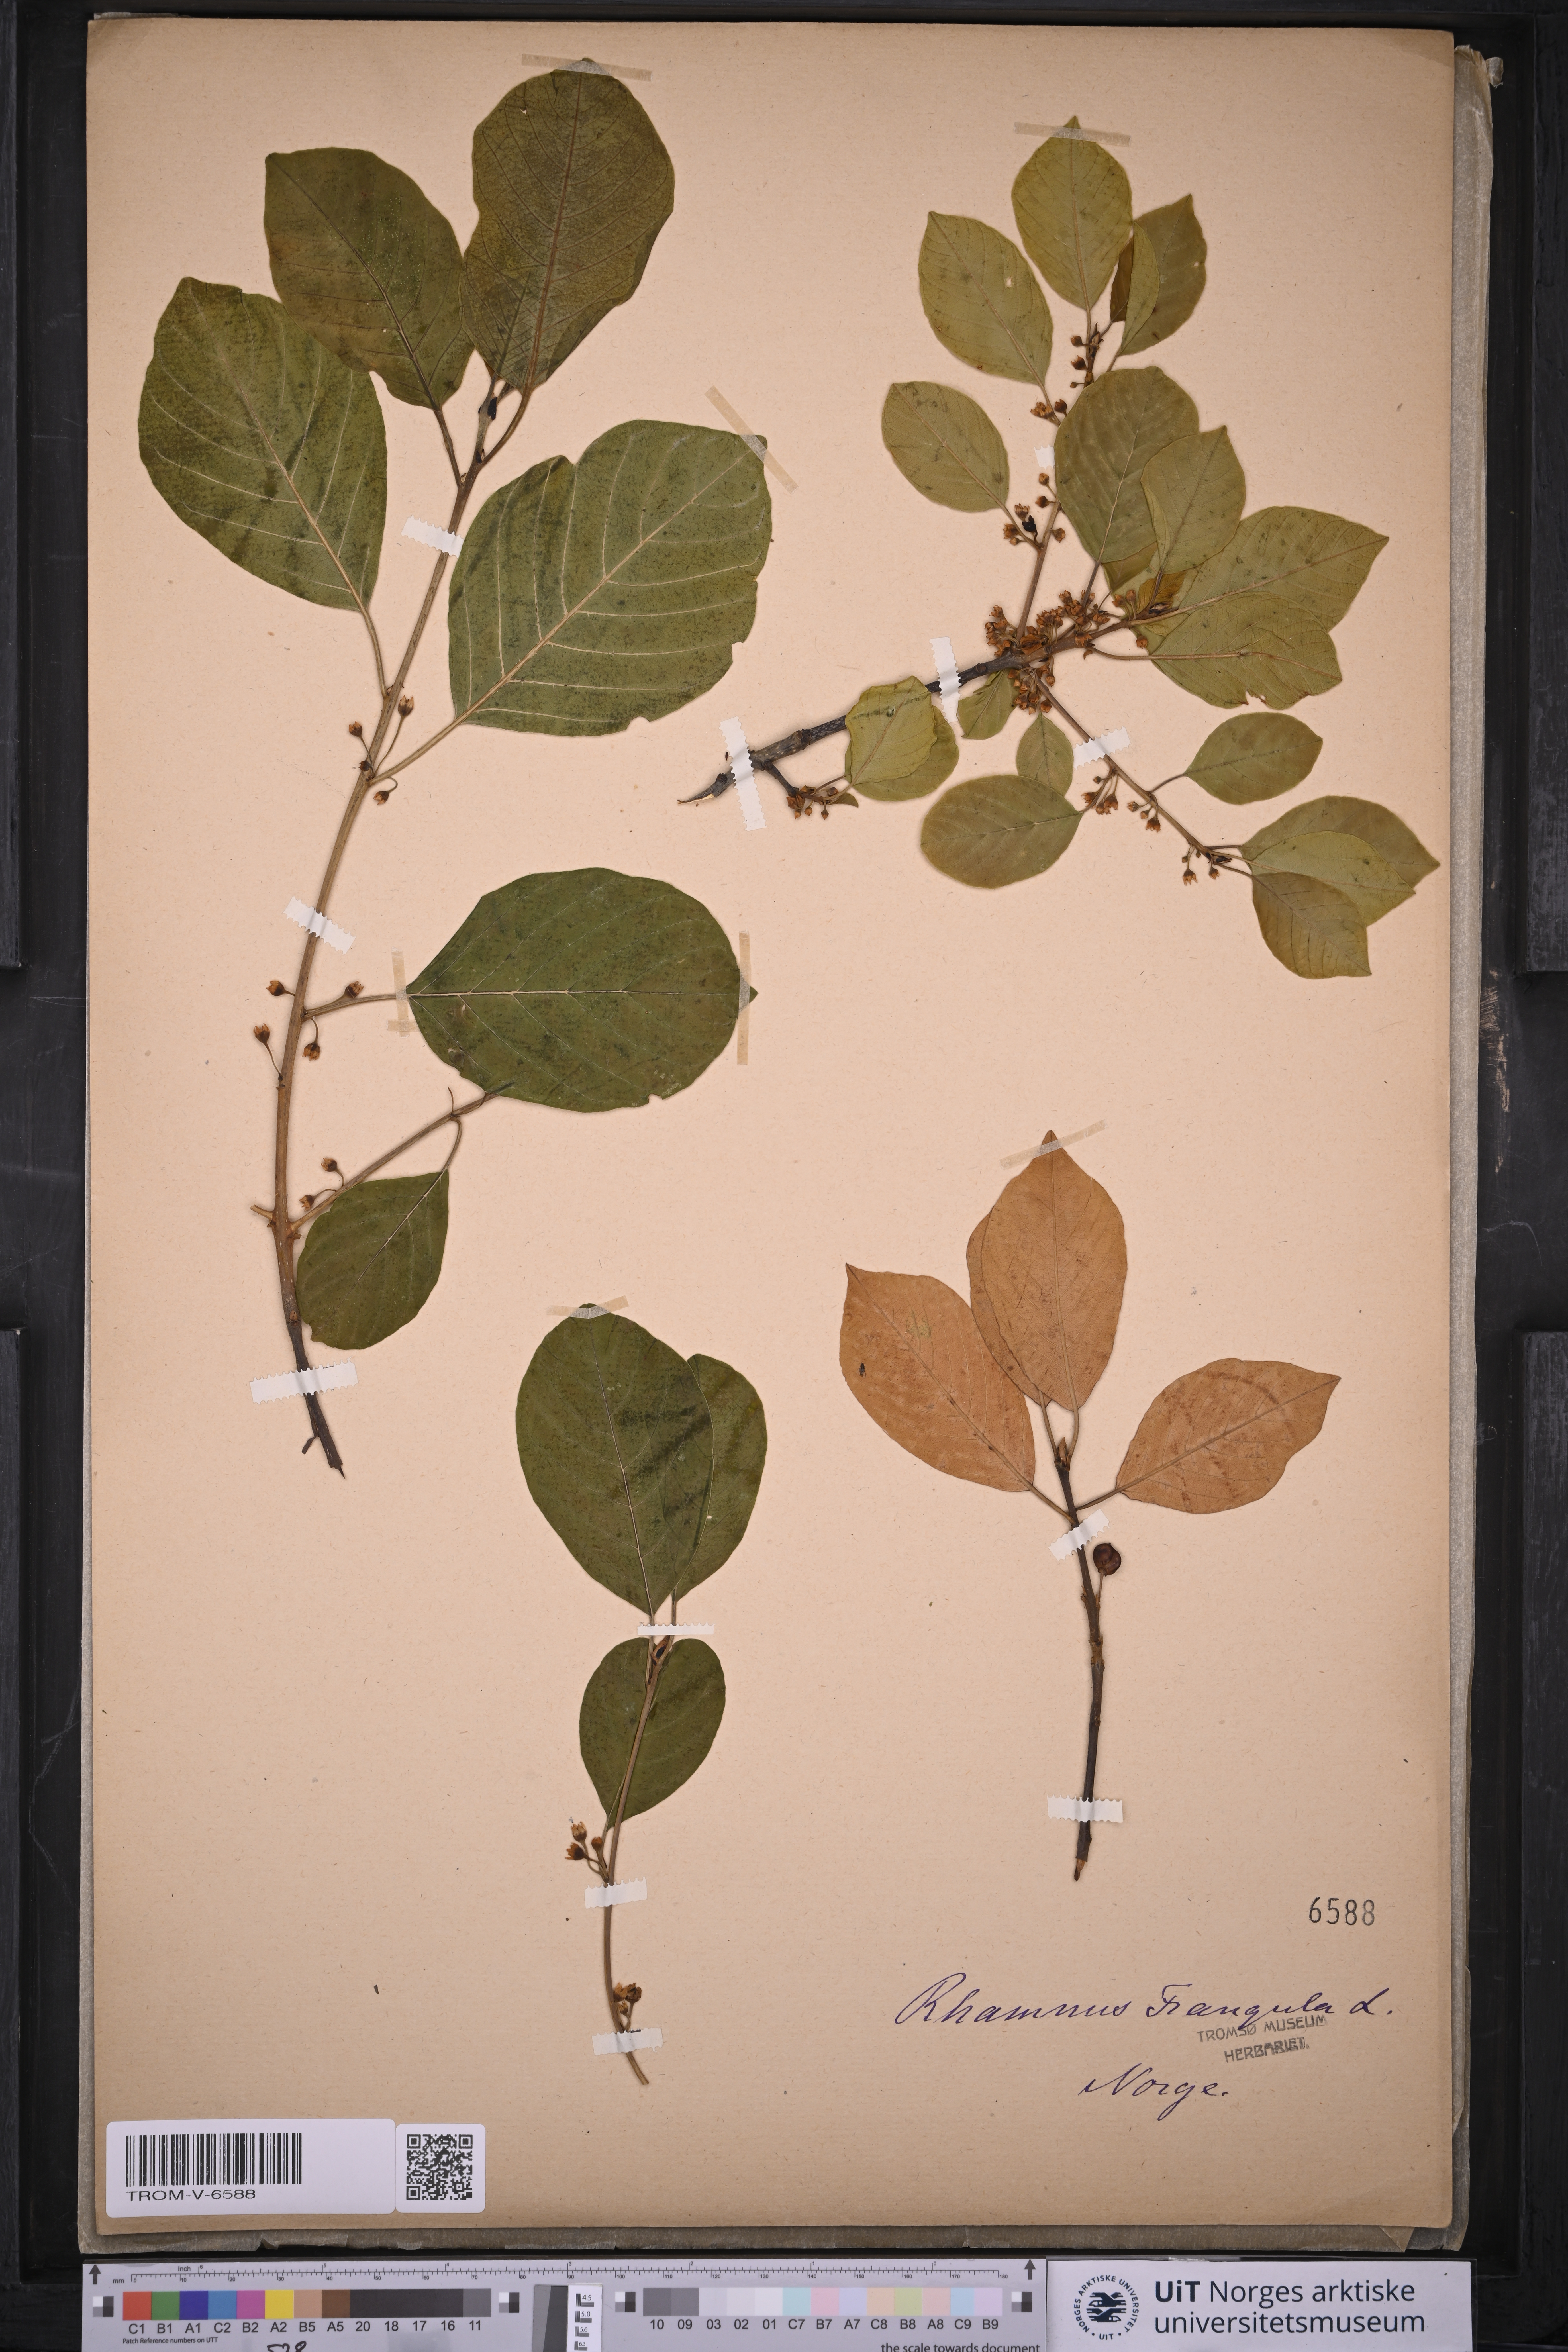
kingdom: Plantae
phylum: Tracheophyta
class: Magnoliopsida
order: Rosales
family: Rhamnaceae
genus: Frangula
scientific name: Frangula alnus
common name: Alder buckthorn
